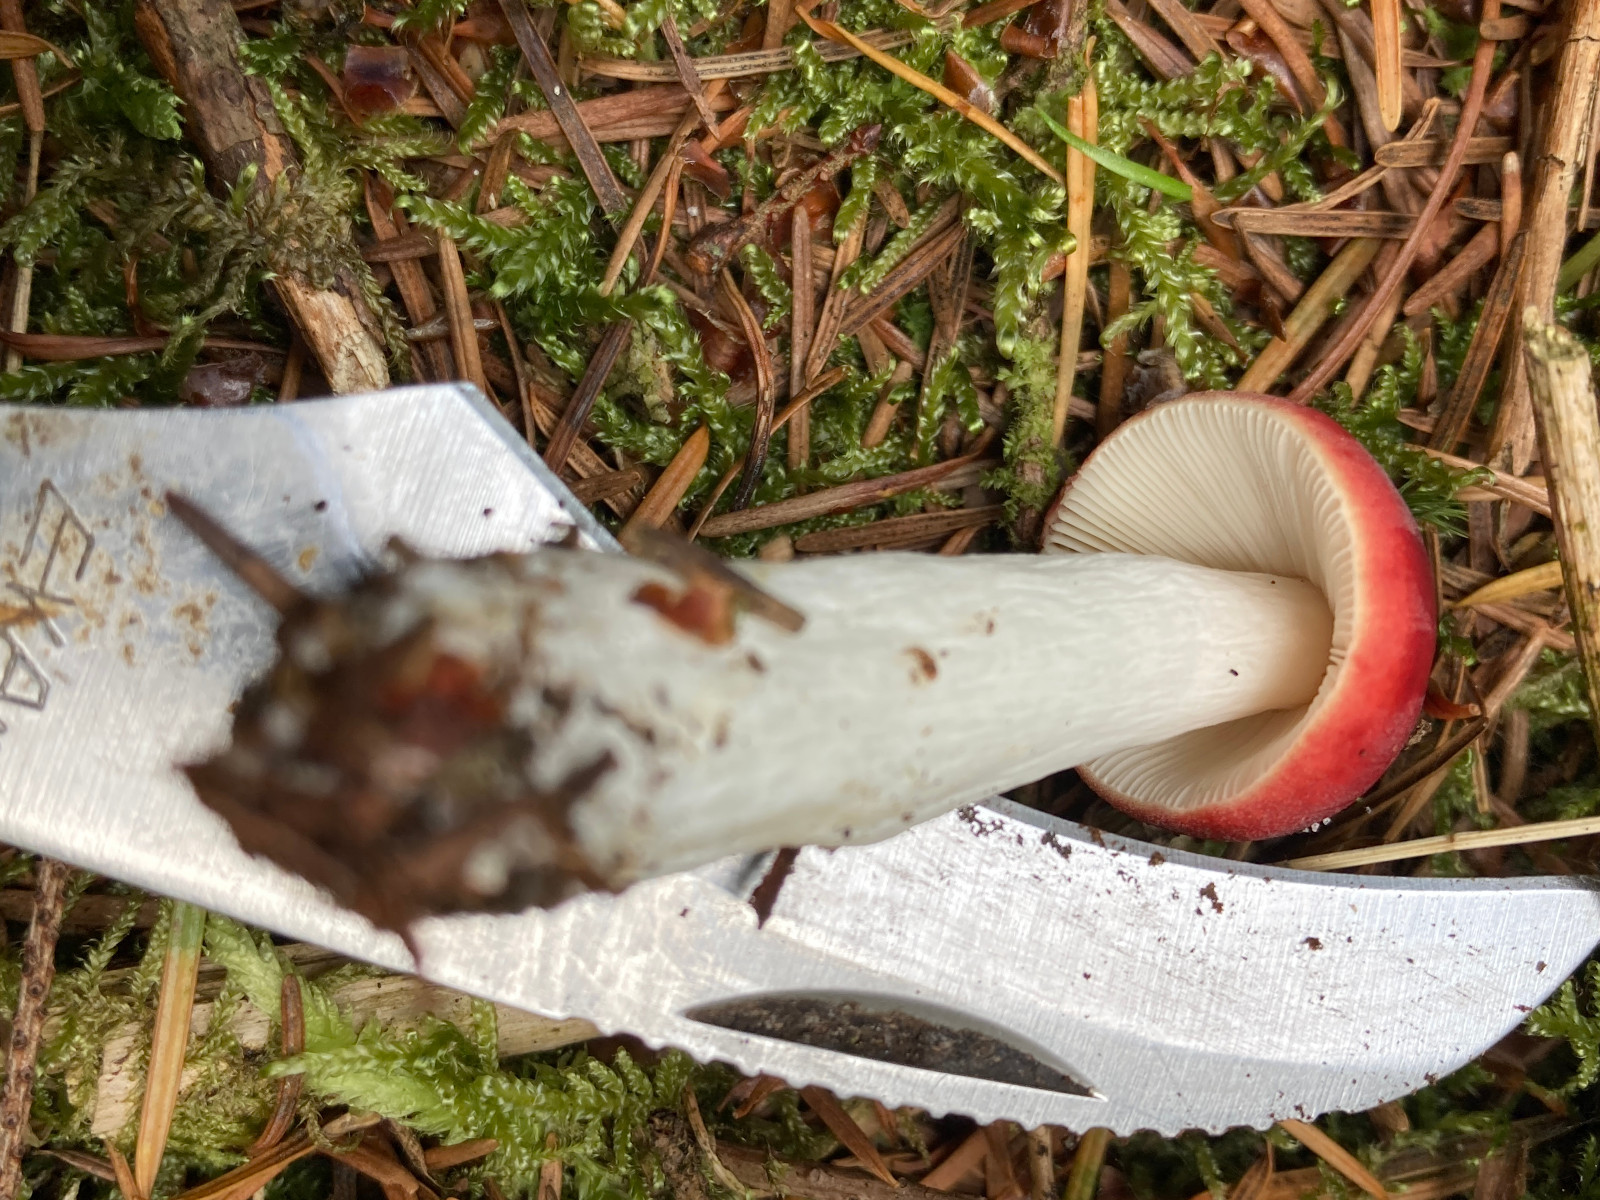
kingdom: Fungi
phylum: Basidiomycota
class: Agaricomycetes
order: Russulales
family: Russulaceae
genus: Russula
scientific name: Russula emetica
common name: stor gift-skørhat
